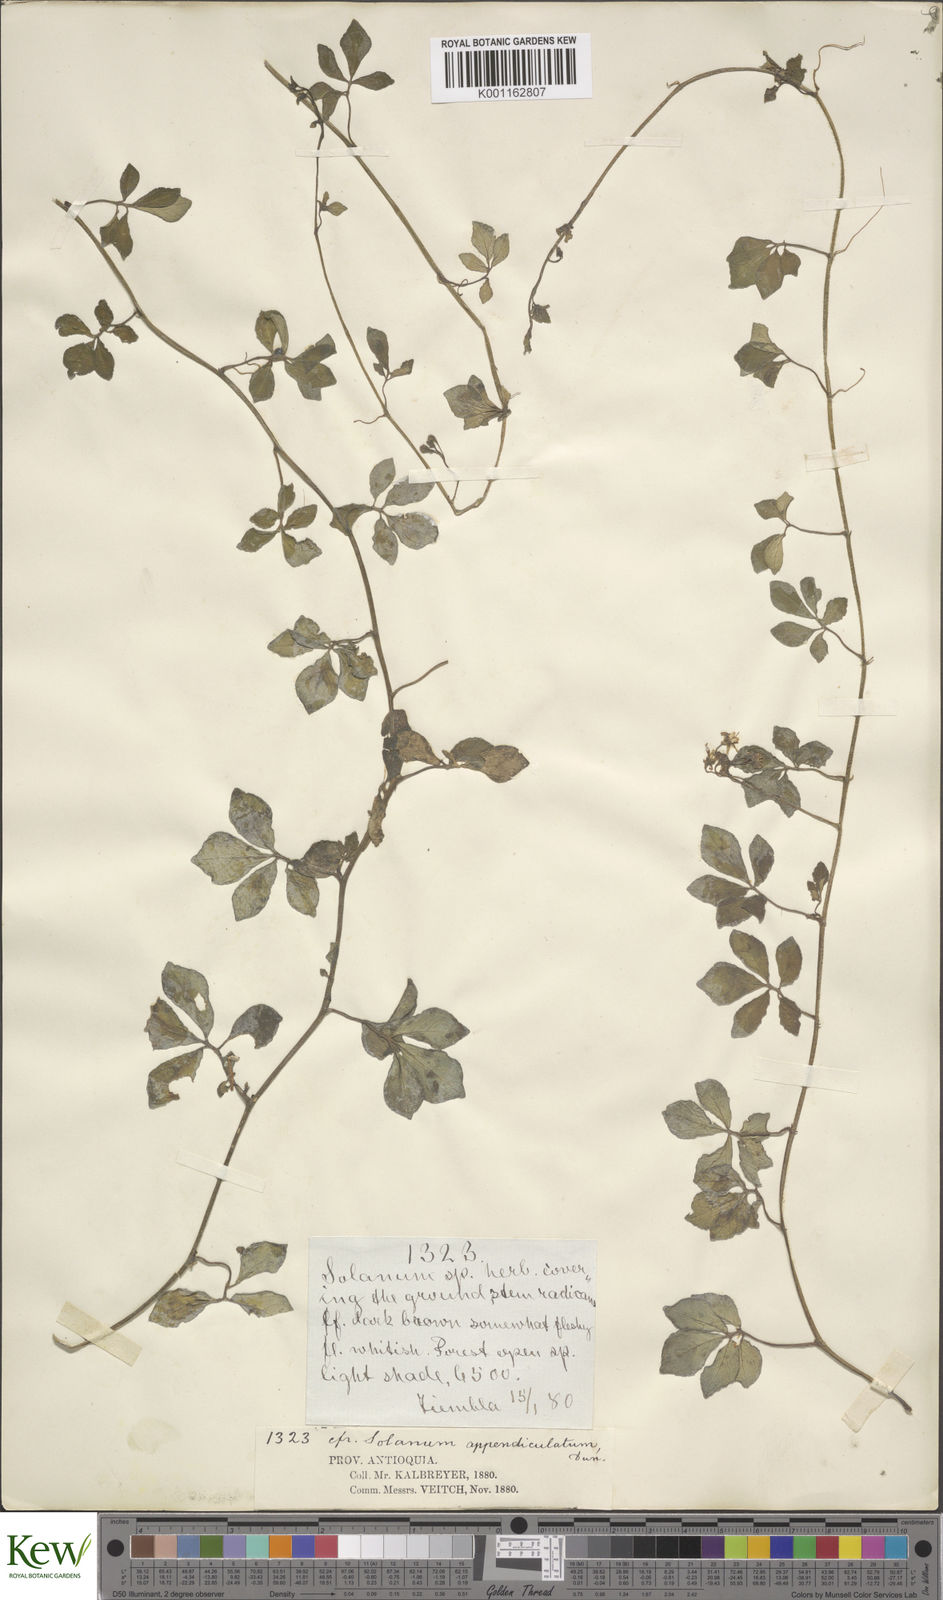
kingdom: Plantae
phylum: Tracheophyta
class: Magnoliopsida
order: Solanales
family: Solanaceae
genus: Solanum
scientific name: Solanum appendiculatum
